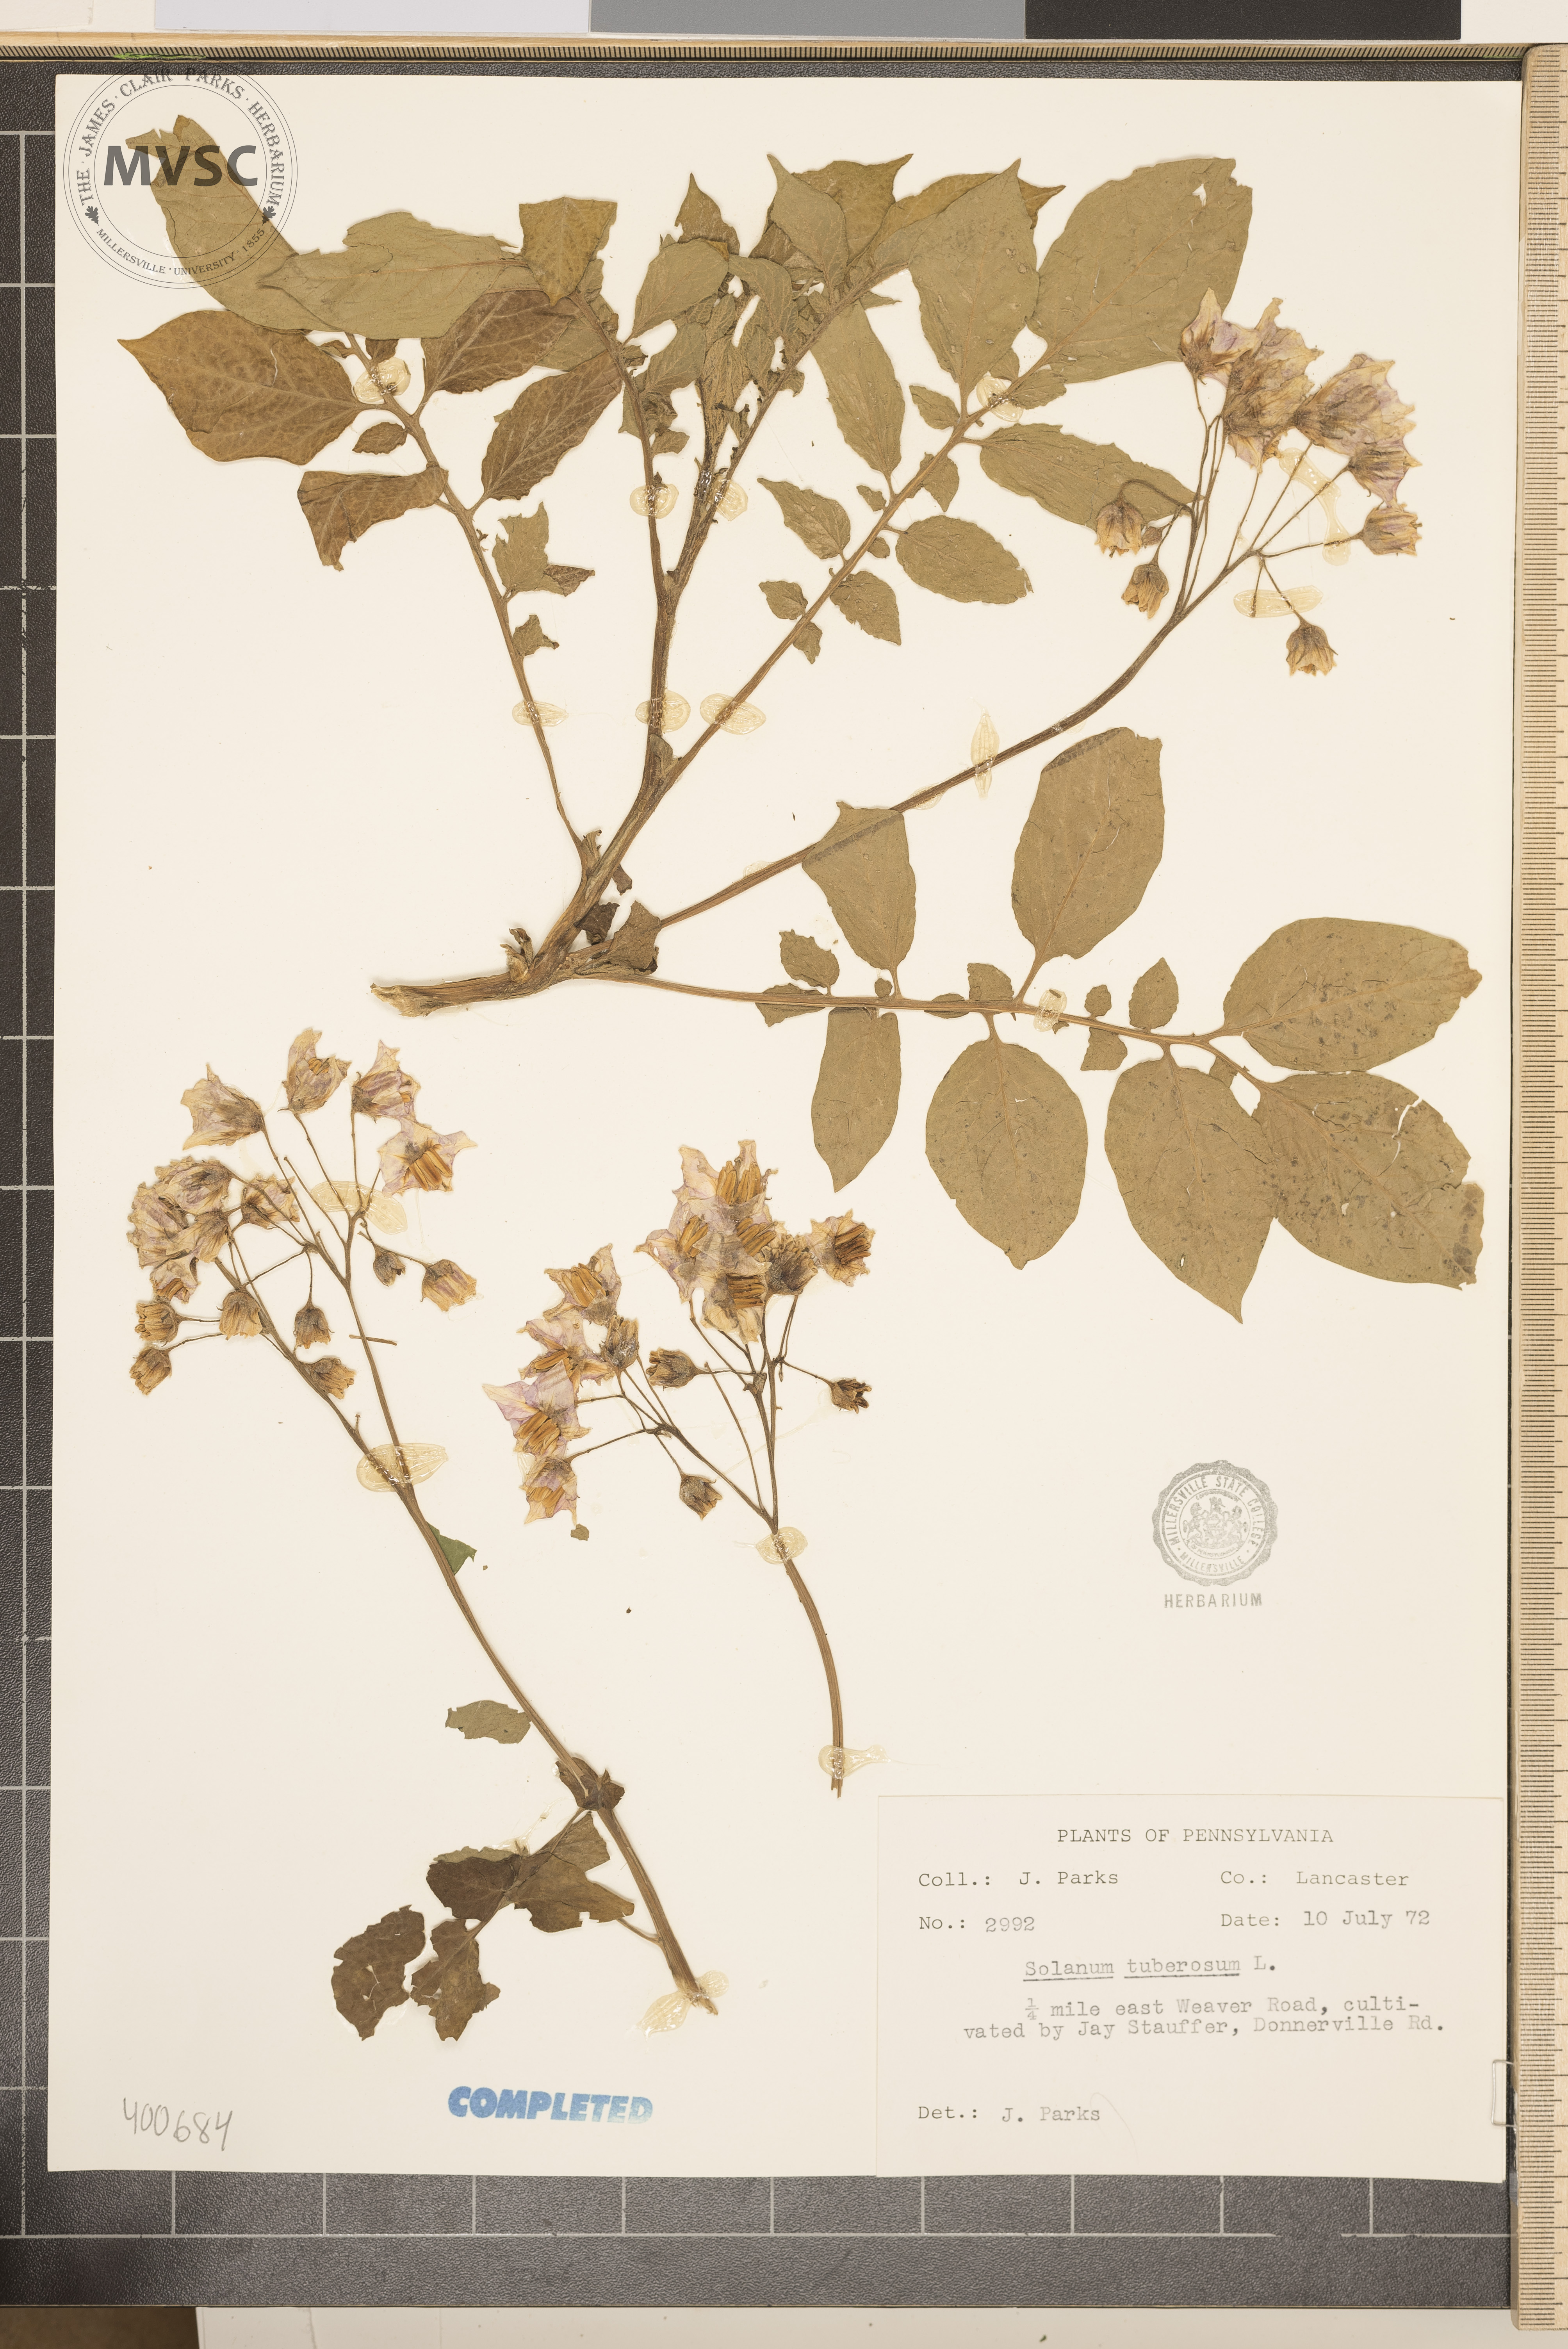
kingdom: Plantae
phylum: Tracheophyta
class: Magnoliopsida
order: Solanales
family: Solanaceae
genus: Solanum
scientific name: Solanum tuberosum
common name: Potato
